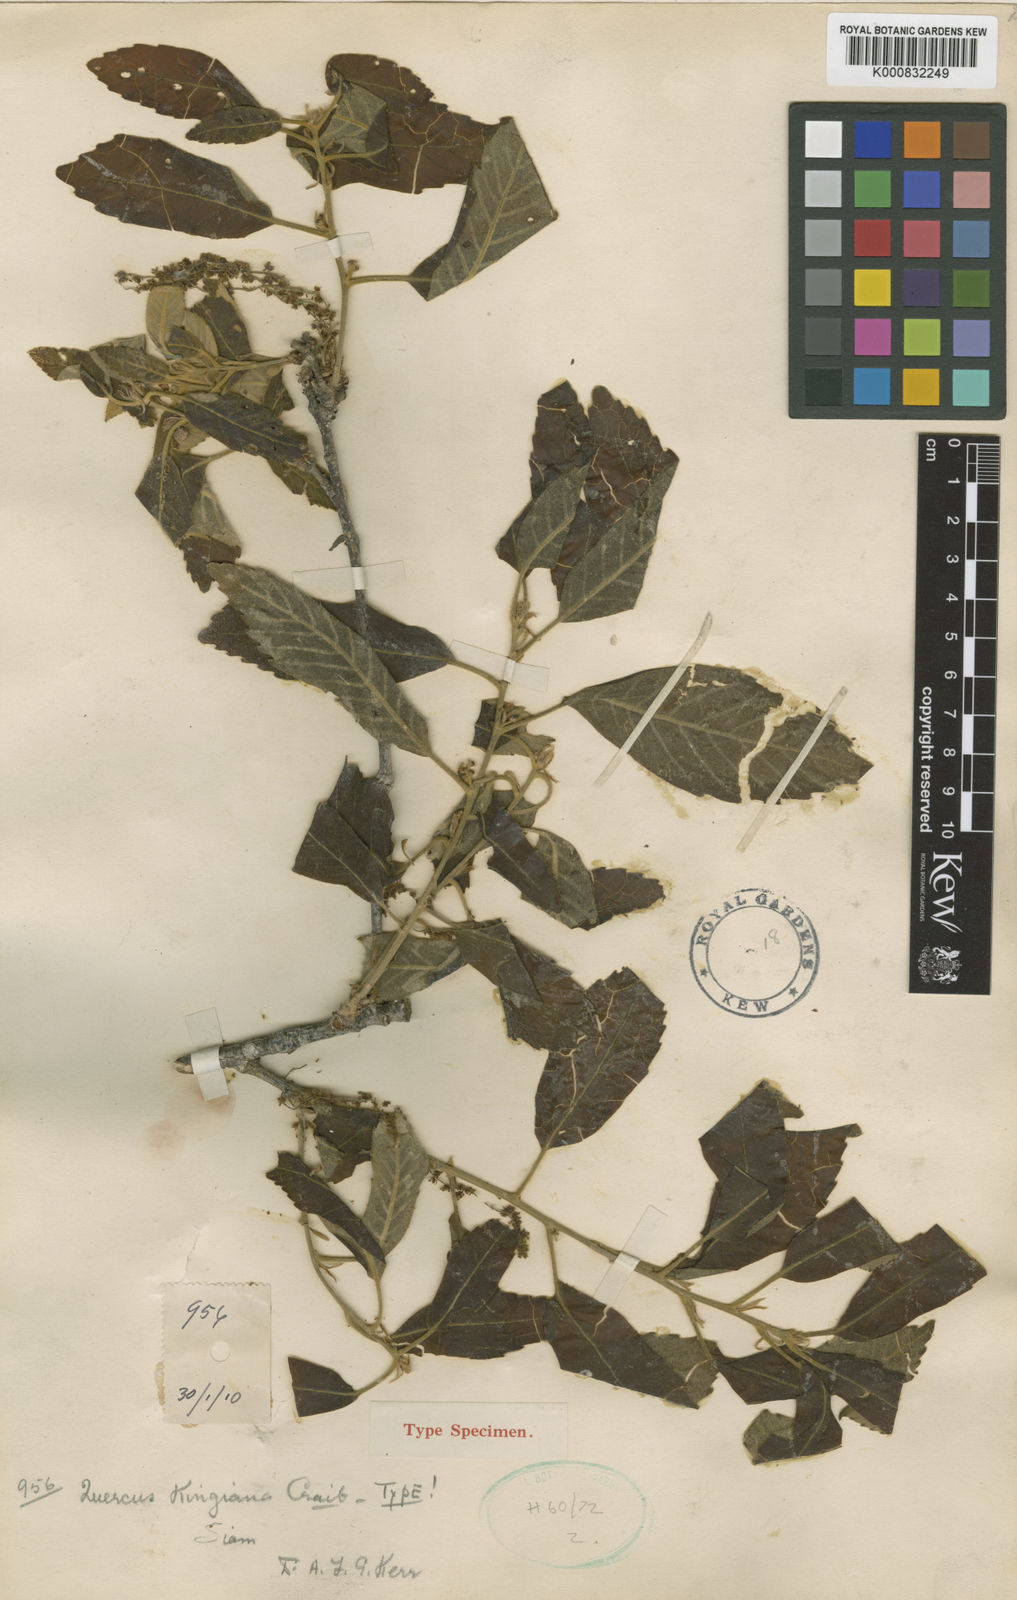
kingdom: Plantae
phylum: Tracheophyta
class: Magnoliopsida
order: Fagales
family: Fagaceae
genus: Quercus
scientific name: Quercus kingiana
